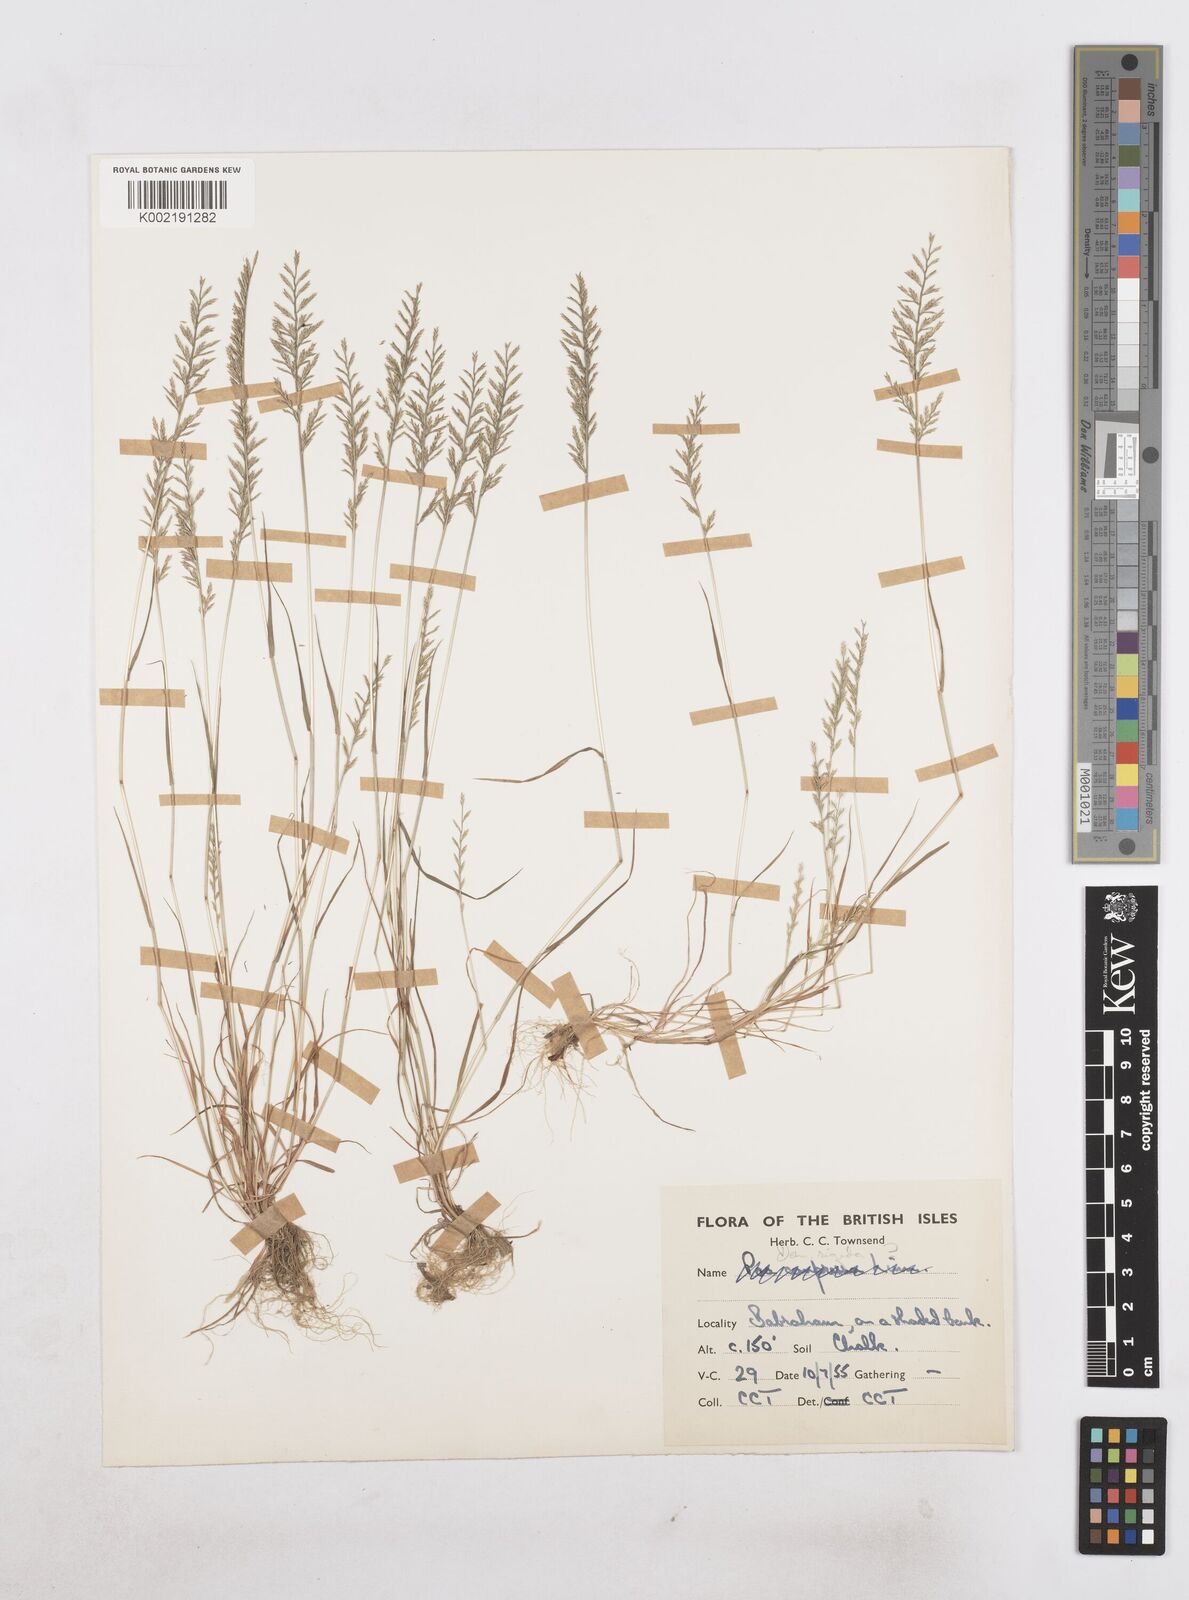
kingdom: Plantae
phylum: Tracheophyta
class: Liliopsida
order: Poales
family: Poaceae
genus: Catapodium
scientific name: Catapodium rigidum
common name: Fern-grass
